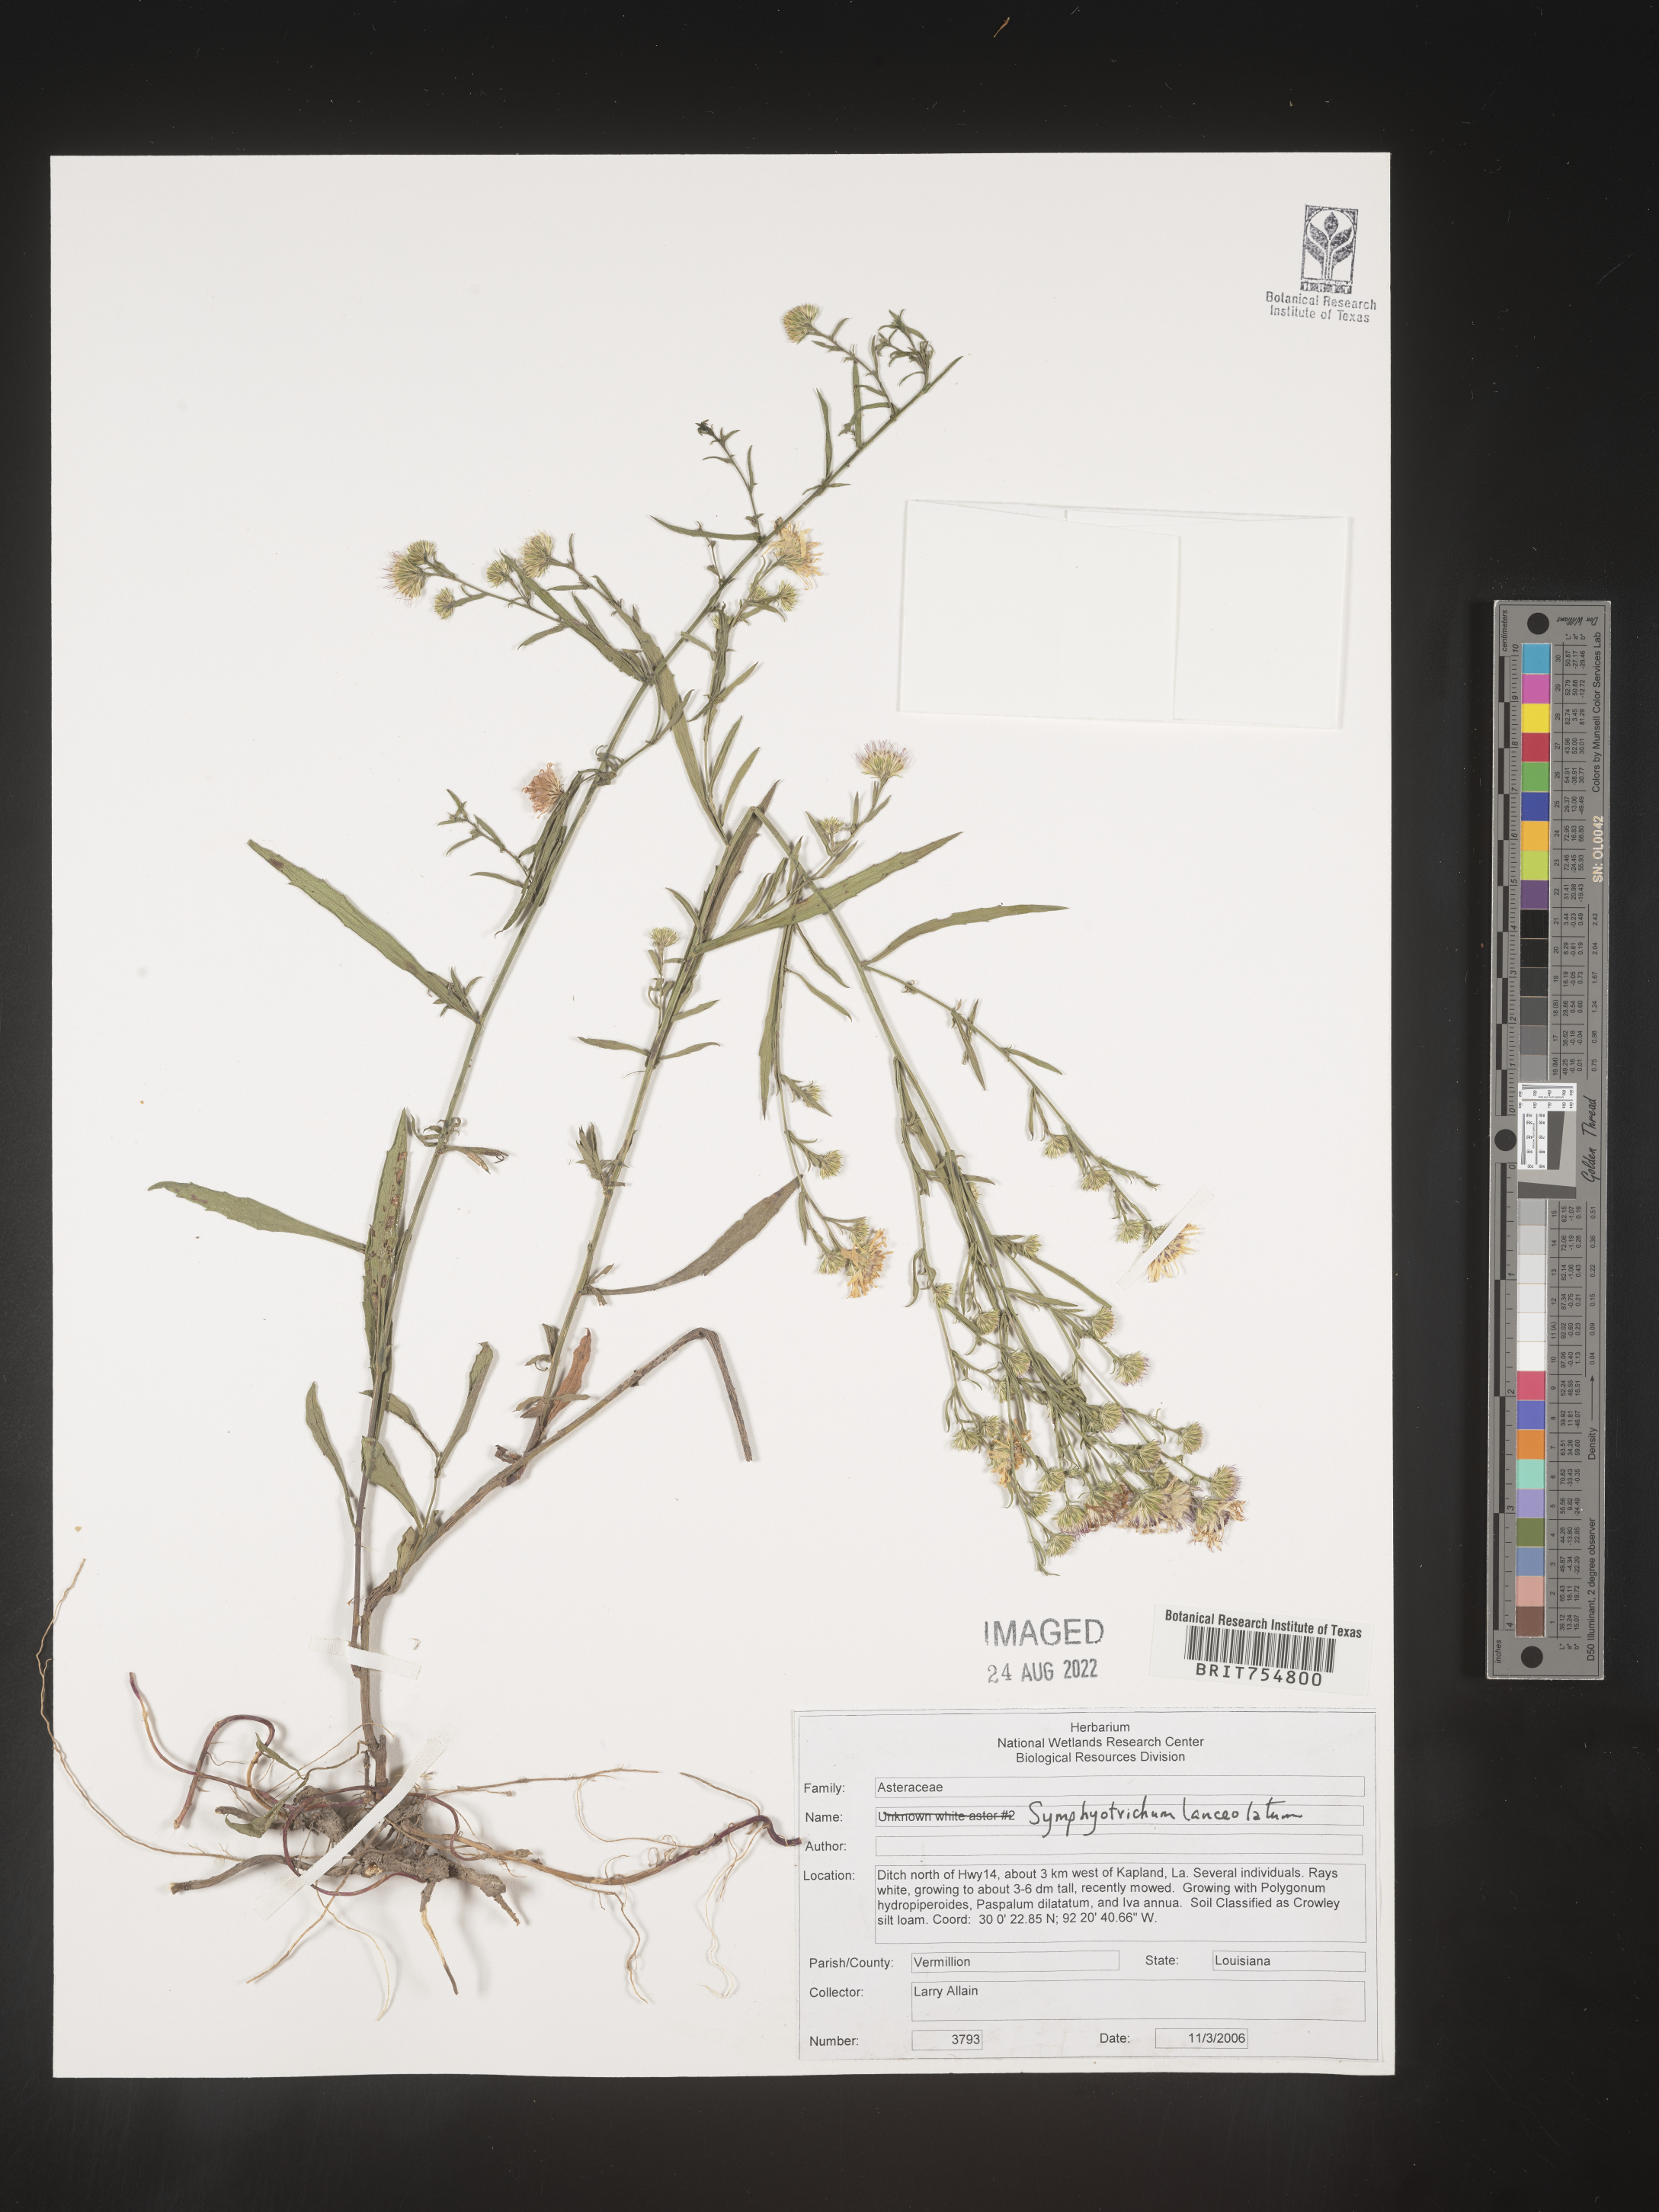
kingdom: Plantae
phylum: Tracheophyta
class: Magnoliopsida
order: Asterales
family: Asteraceae
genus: Symphyotrichum
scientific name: Symphyotrichum
